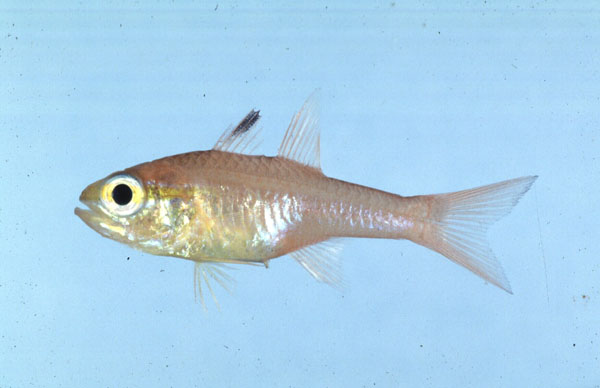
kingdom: Animalia
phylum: Chordata
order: Perciformes
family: Apogonidae
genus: Ostorhinchus
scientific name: Ostorhinchus apogonoides
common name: Goldbelly cardinalfish
